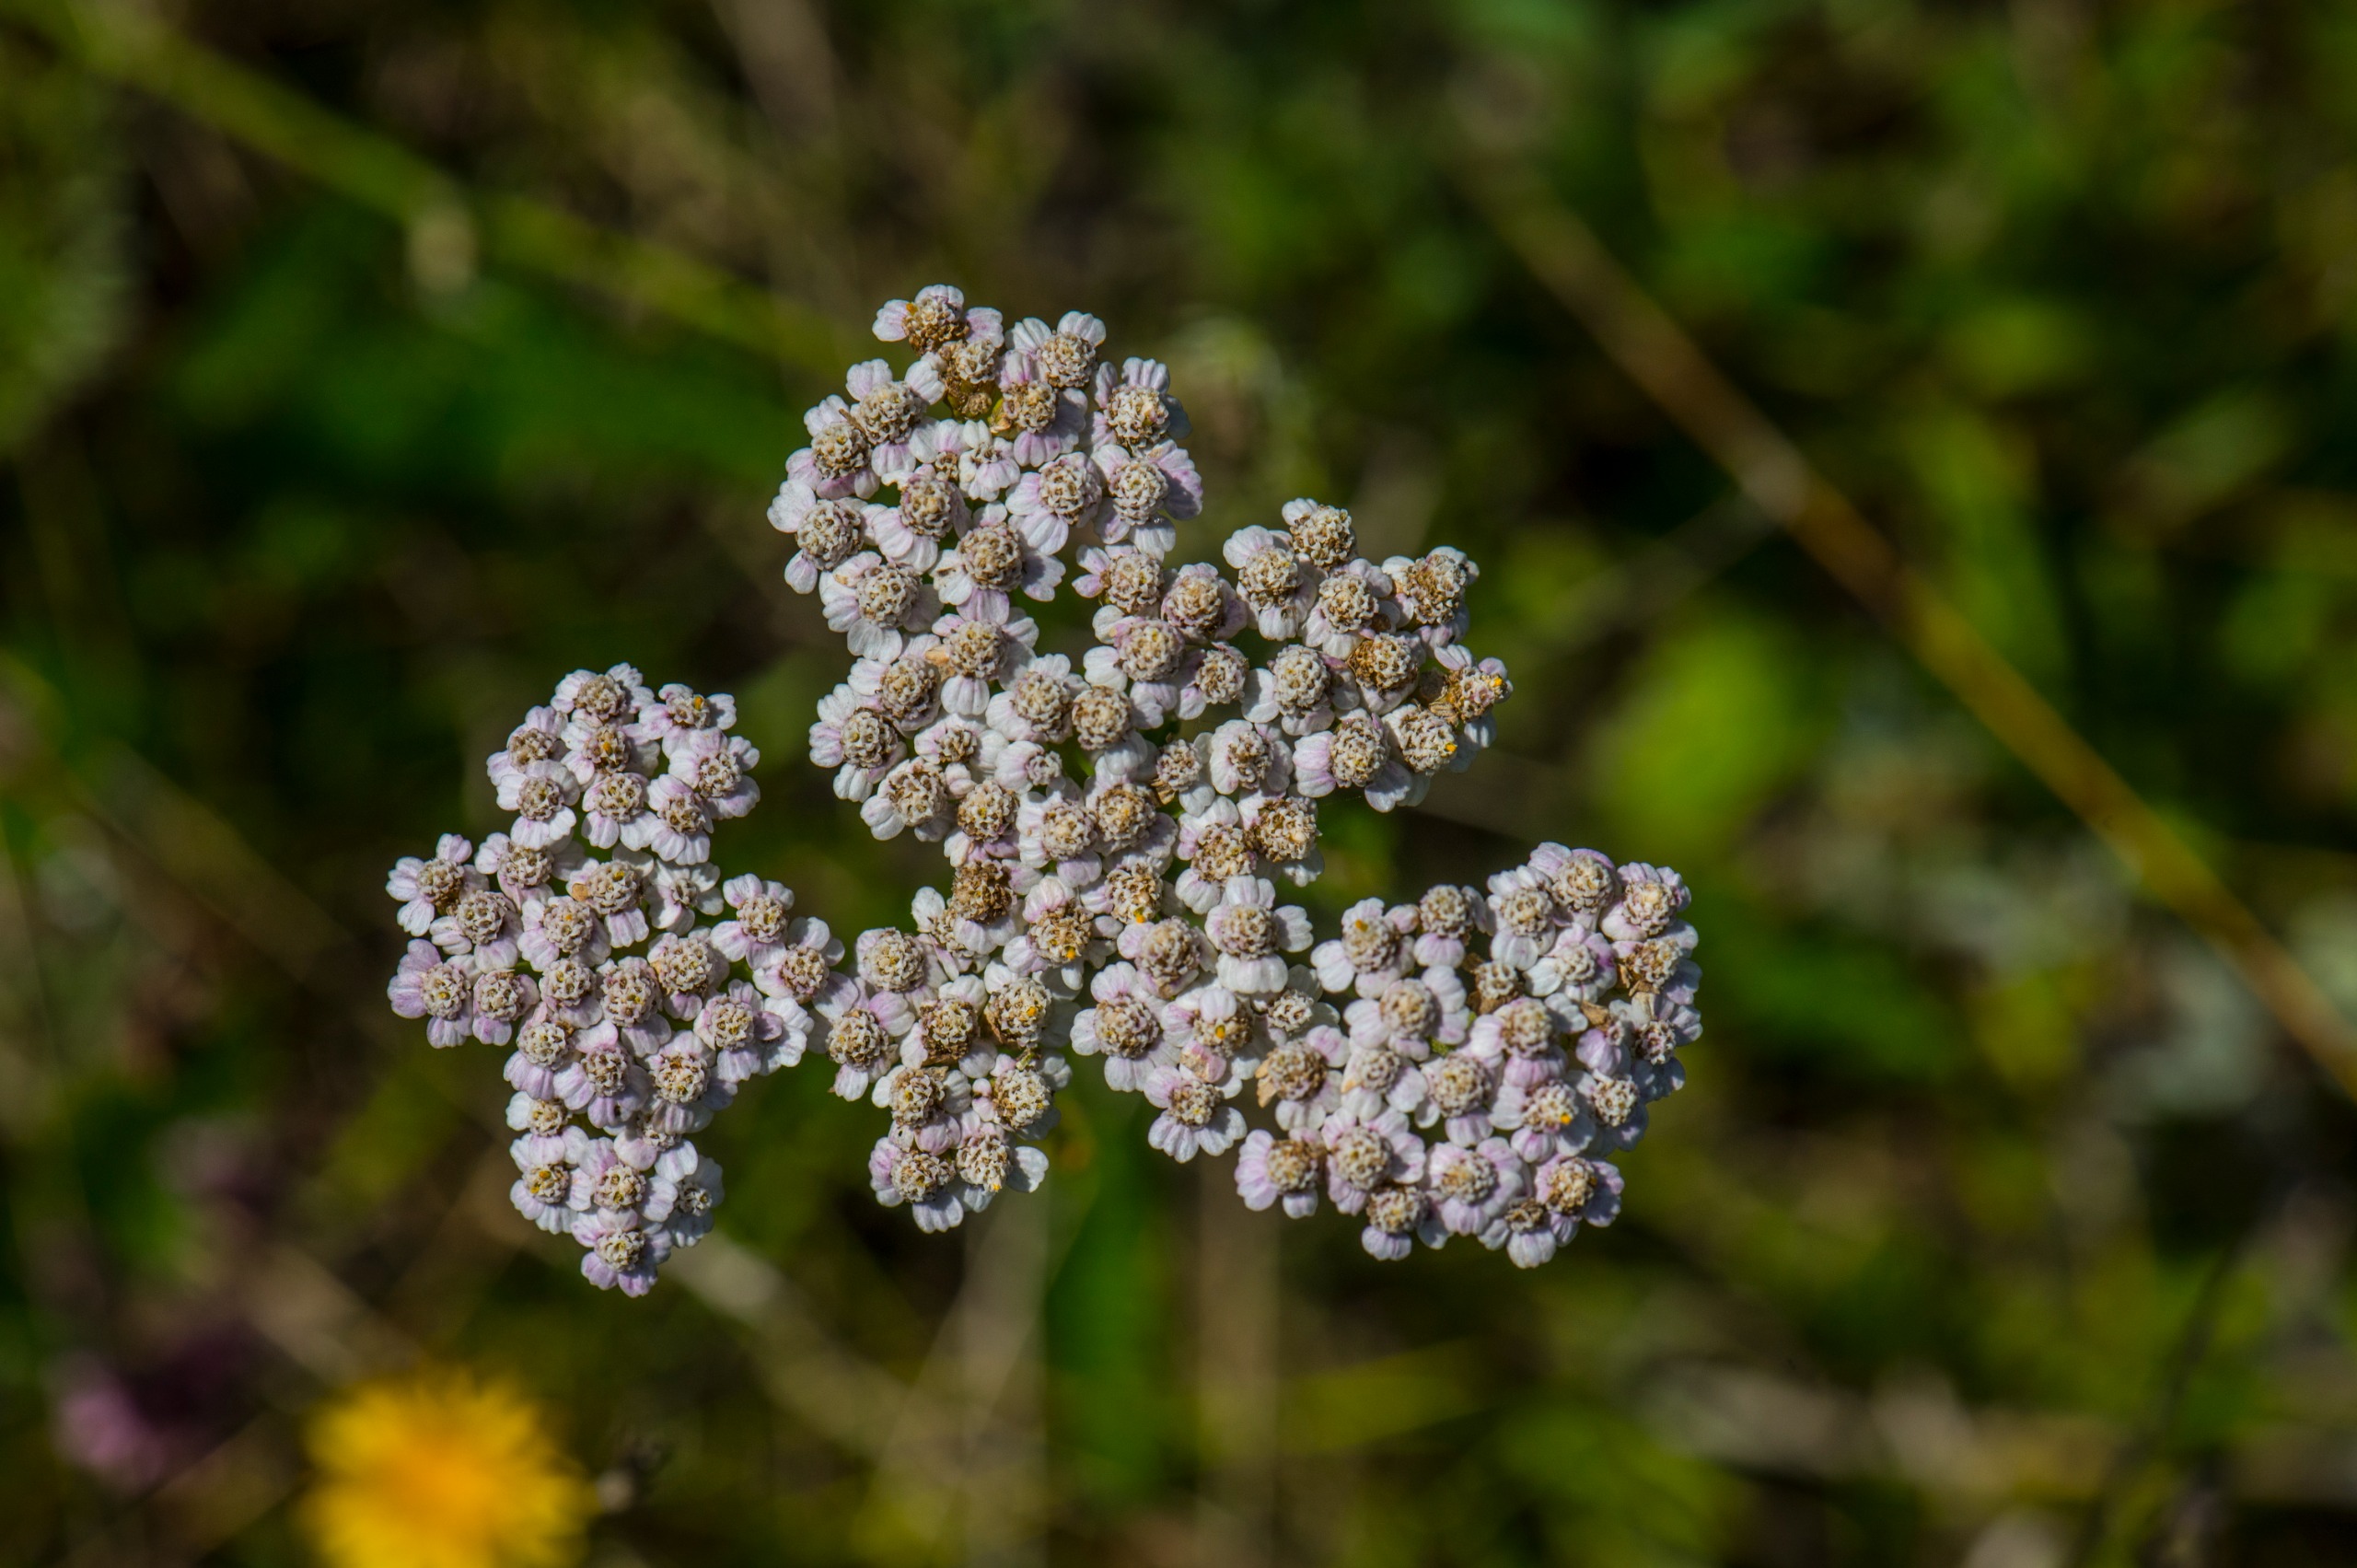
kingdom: Plantae
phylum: Tracheophyta
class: Magnoliopsida
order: Asterales
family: Asteraceae
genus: Achillea
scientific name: Achillea millefolium
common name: Almindelig røllike
